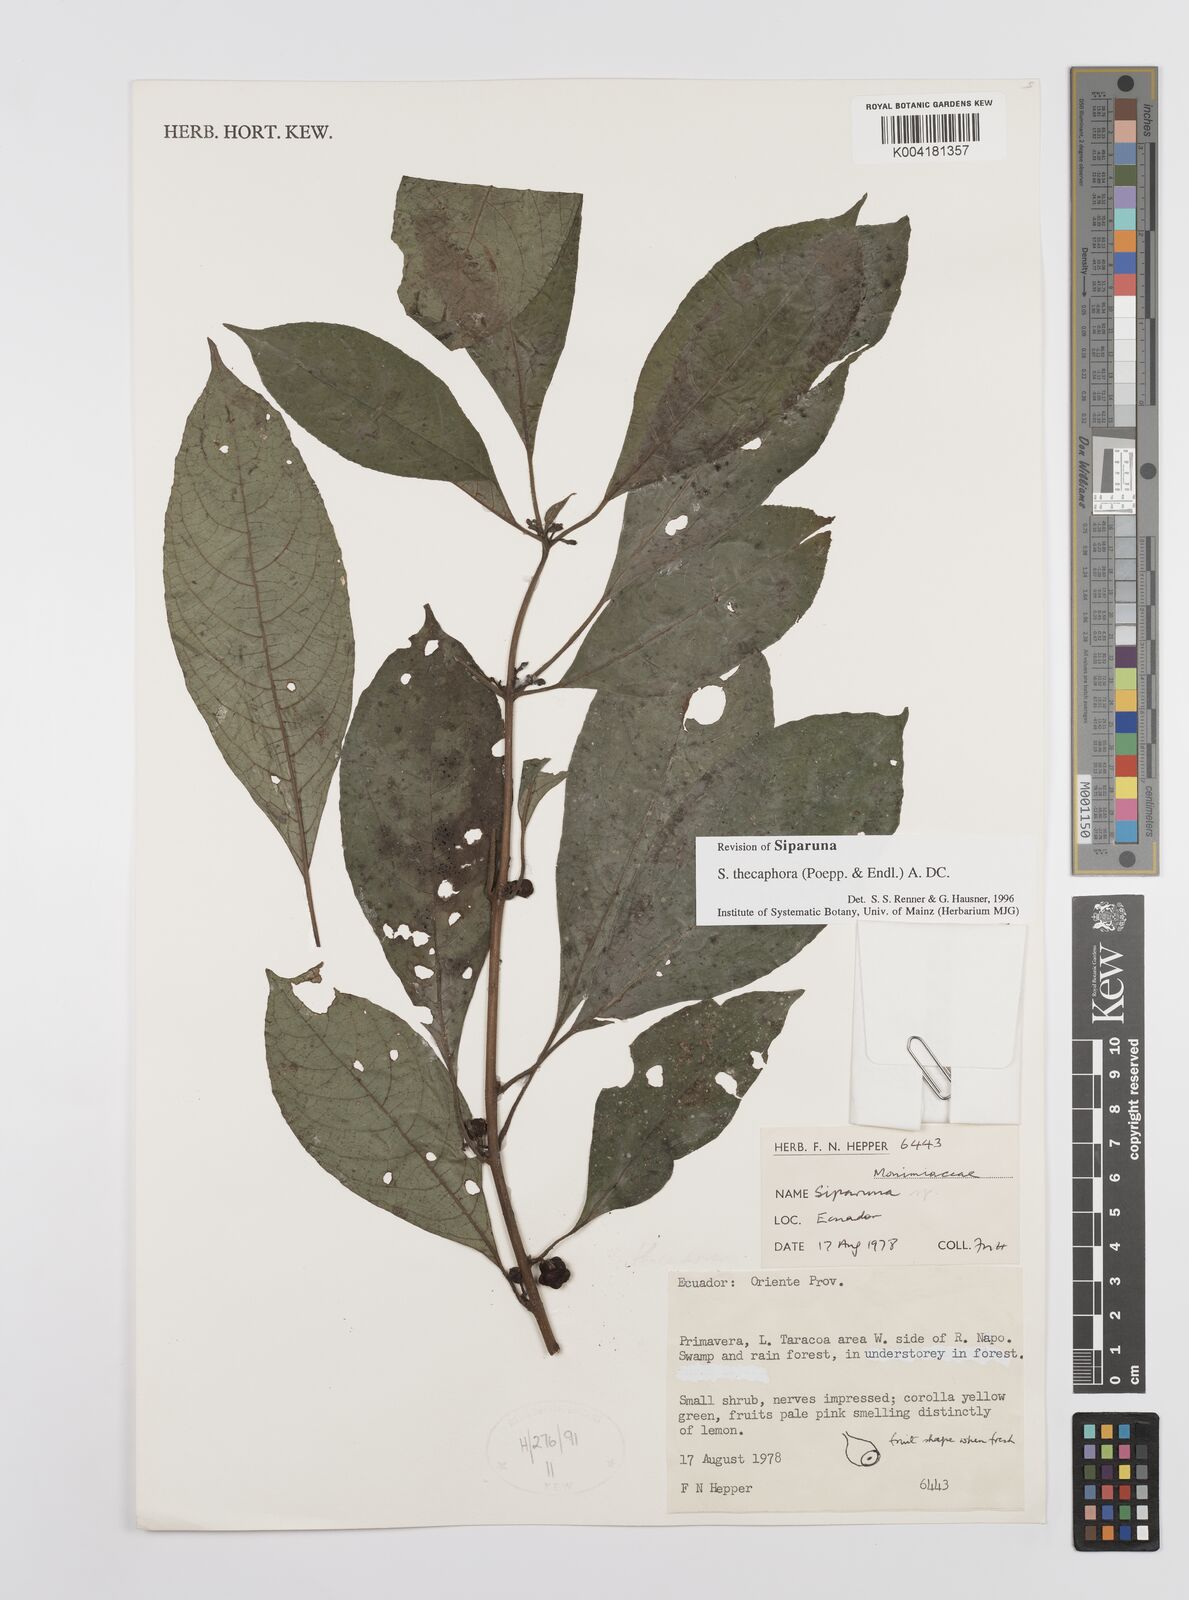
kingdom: Plantae
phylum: Tracheophyta
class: Magnoliopsida
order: Laurales
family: Siparunaceae
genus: Siparuna
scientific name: Siparuna thecaphora
